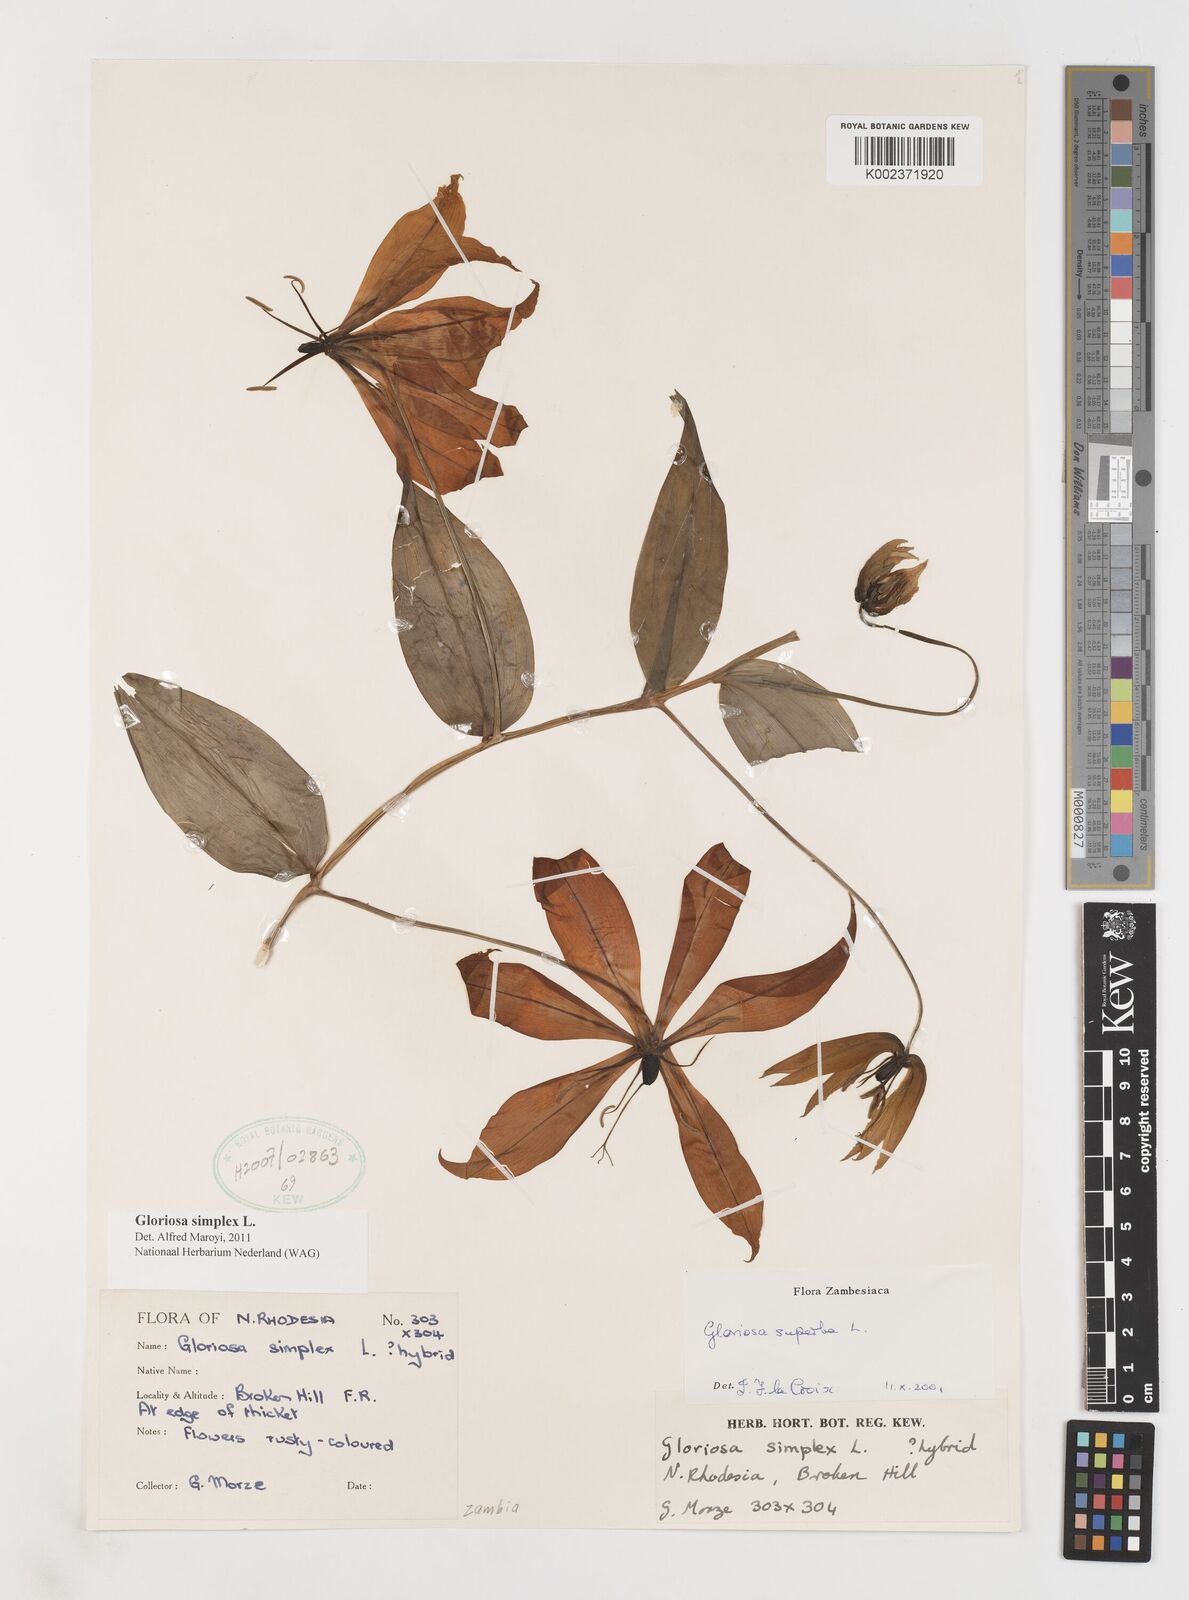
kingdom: Plantae
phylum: Tracheophyta
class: Liliopsida
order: Liliales
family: Colchicaceae
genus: Gloriosa
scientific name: Gloriosa simplex
